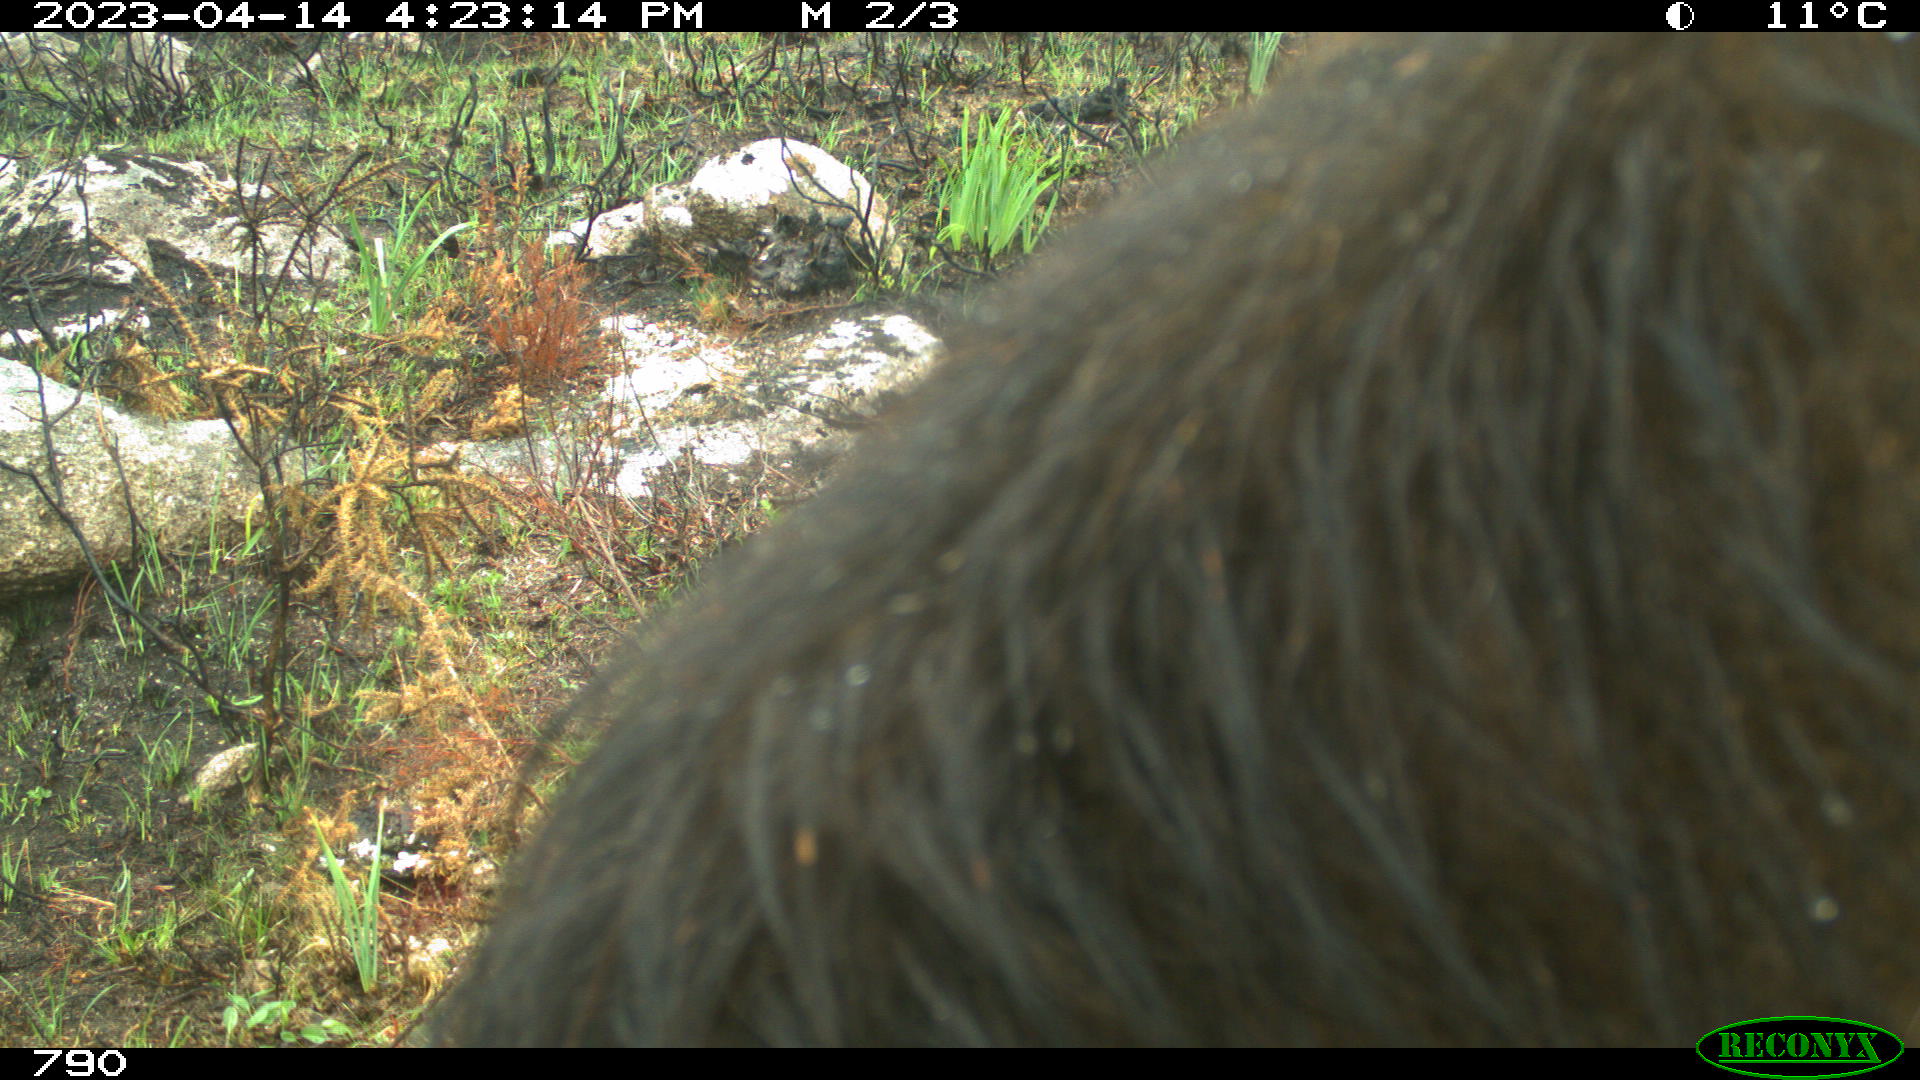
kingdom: Animalia
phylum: Chordata
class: Mammalia
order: Artiodactyla
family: Bovidae
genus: Bos
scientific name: Bos taurus
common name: Domesticated cattle
